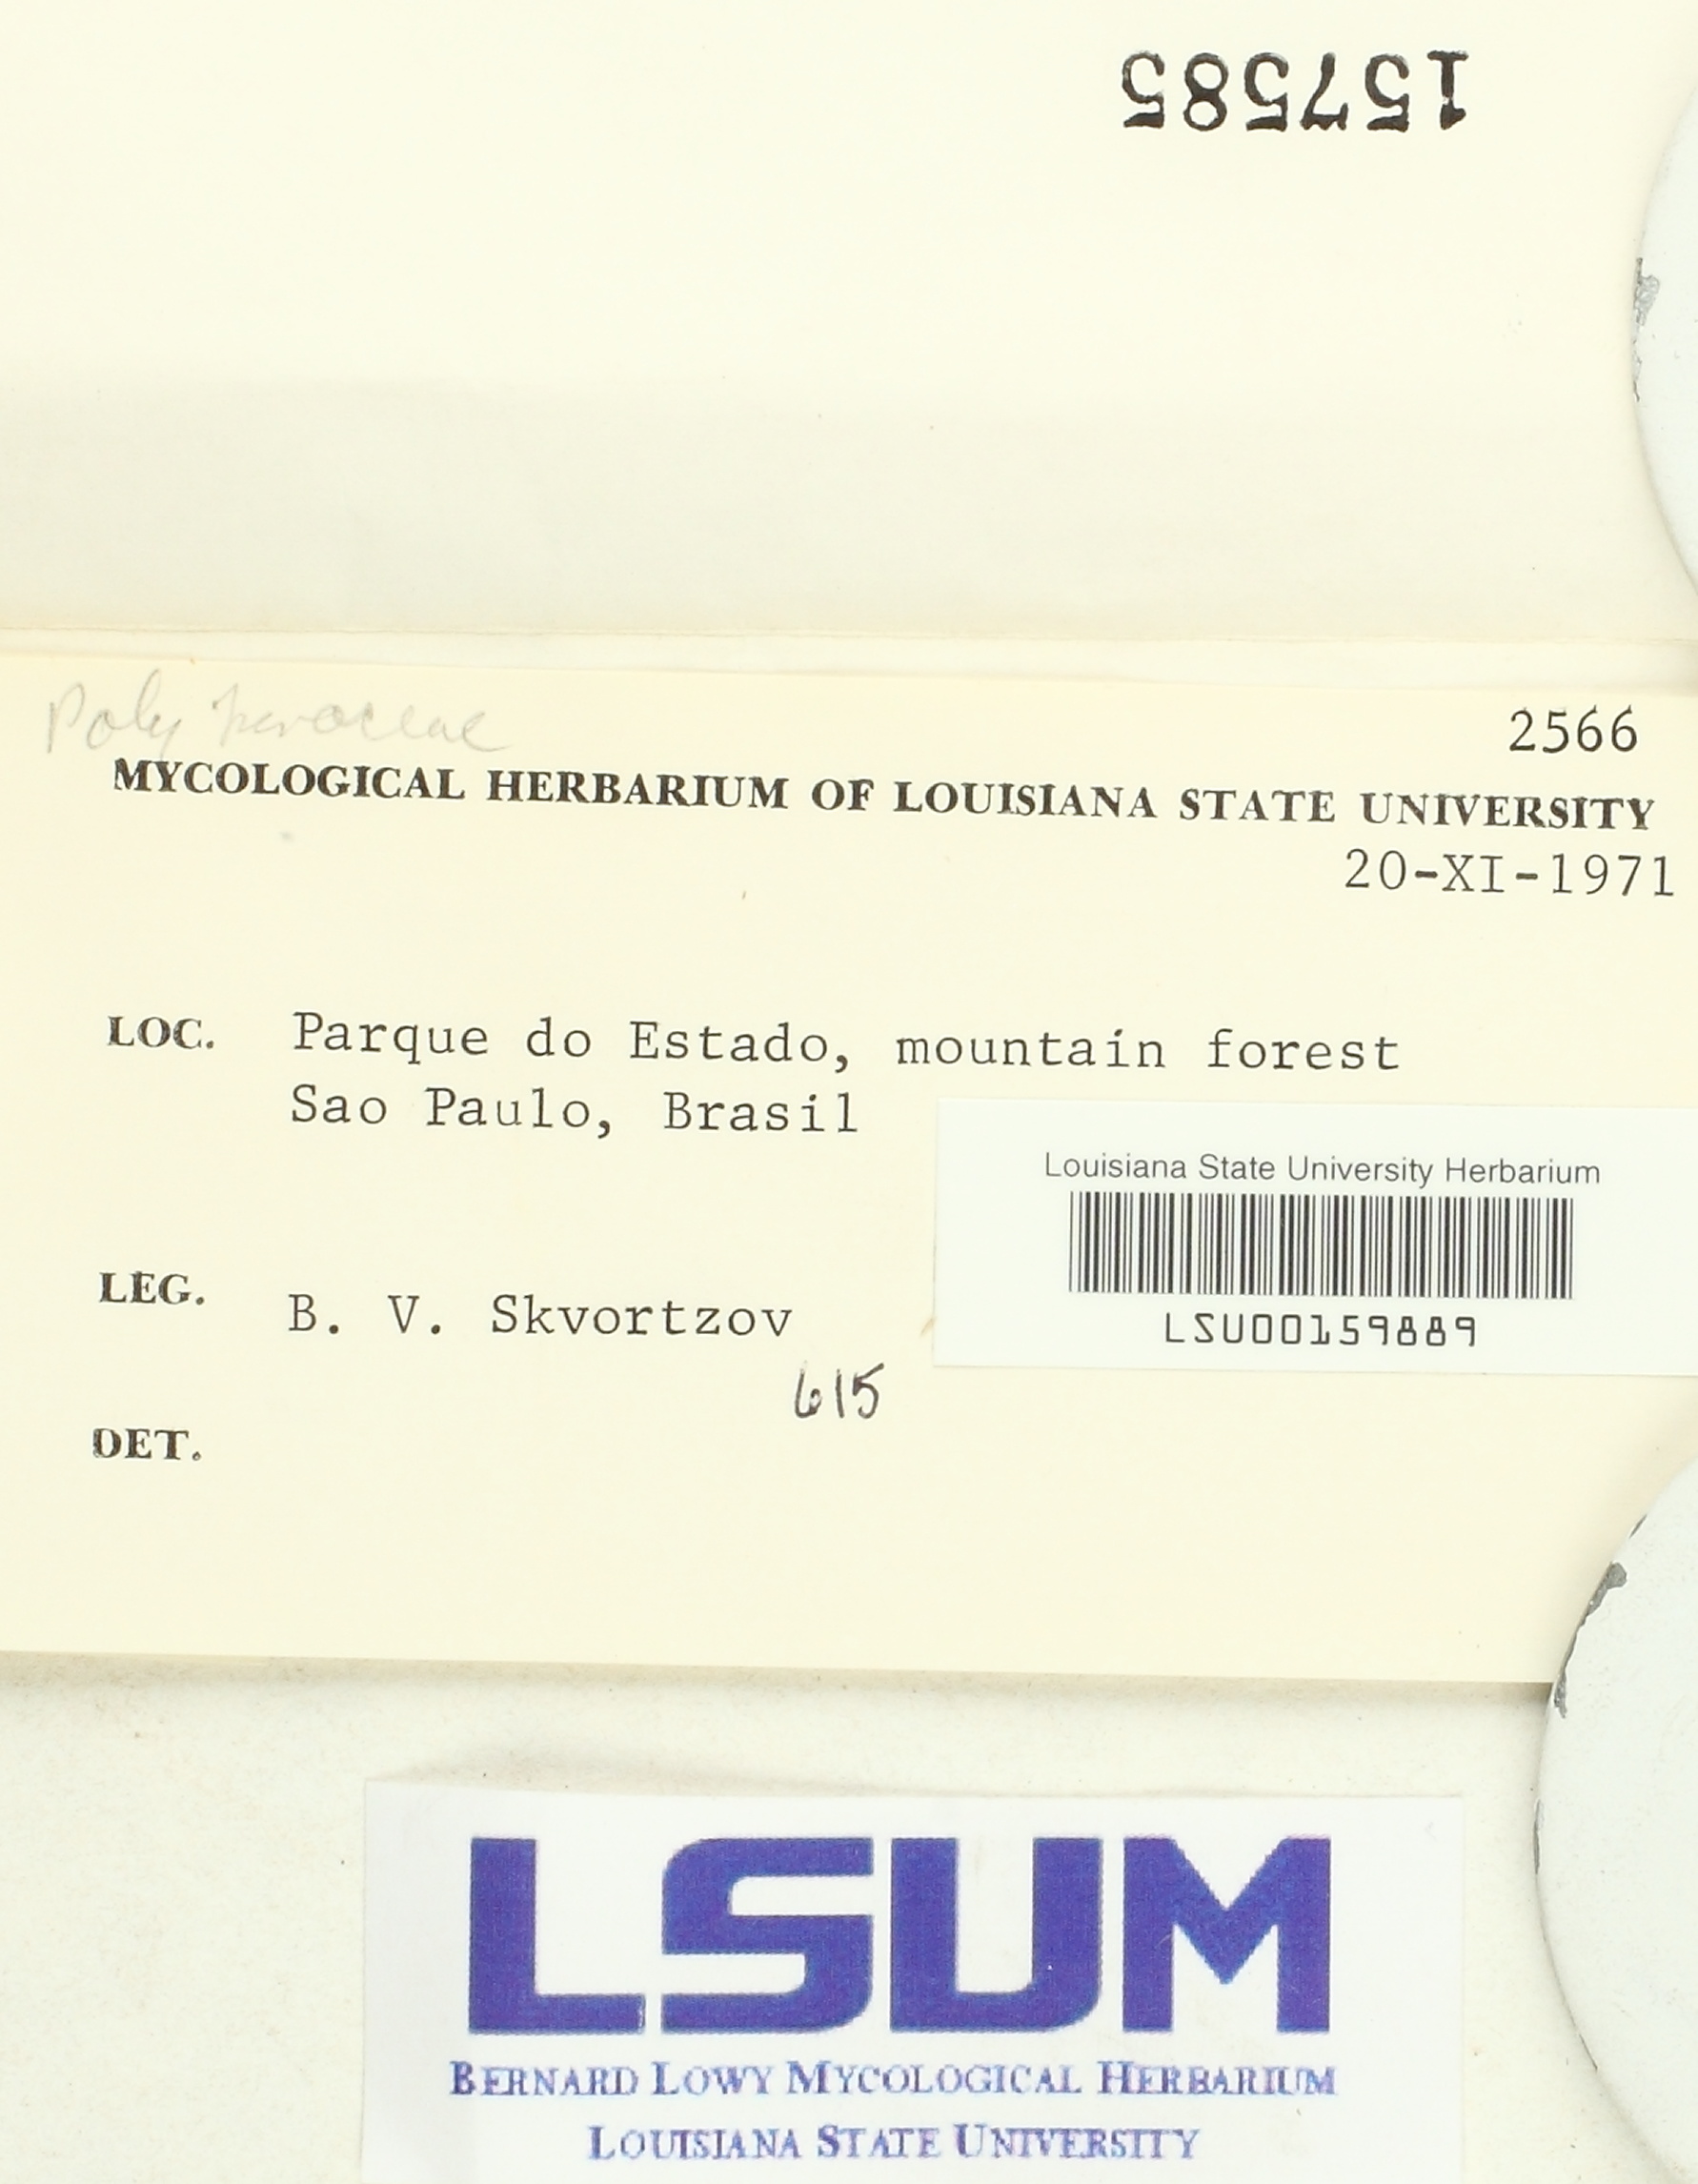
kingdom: Fungi
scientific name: Fungi
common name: Fungi
